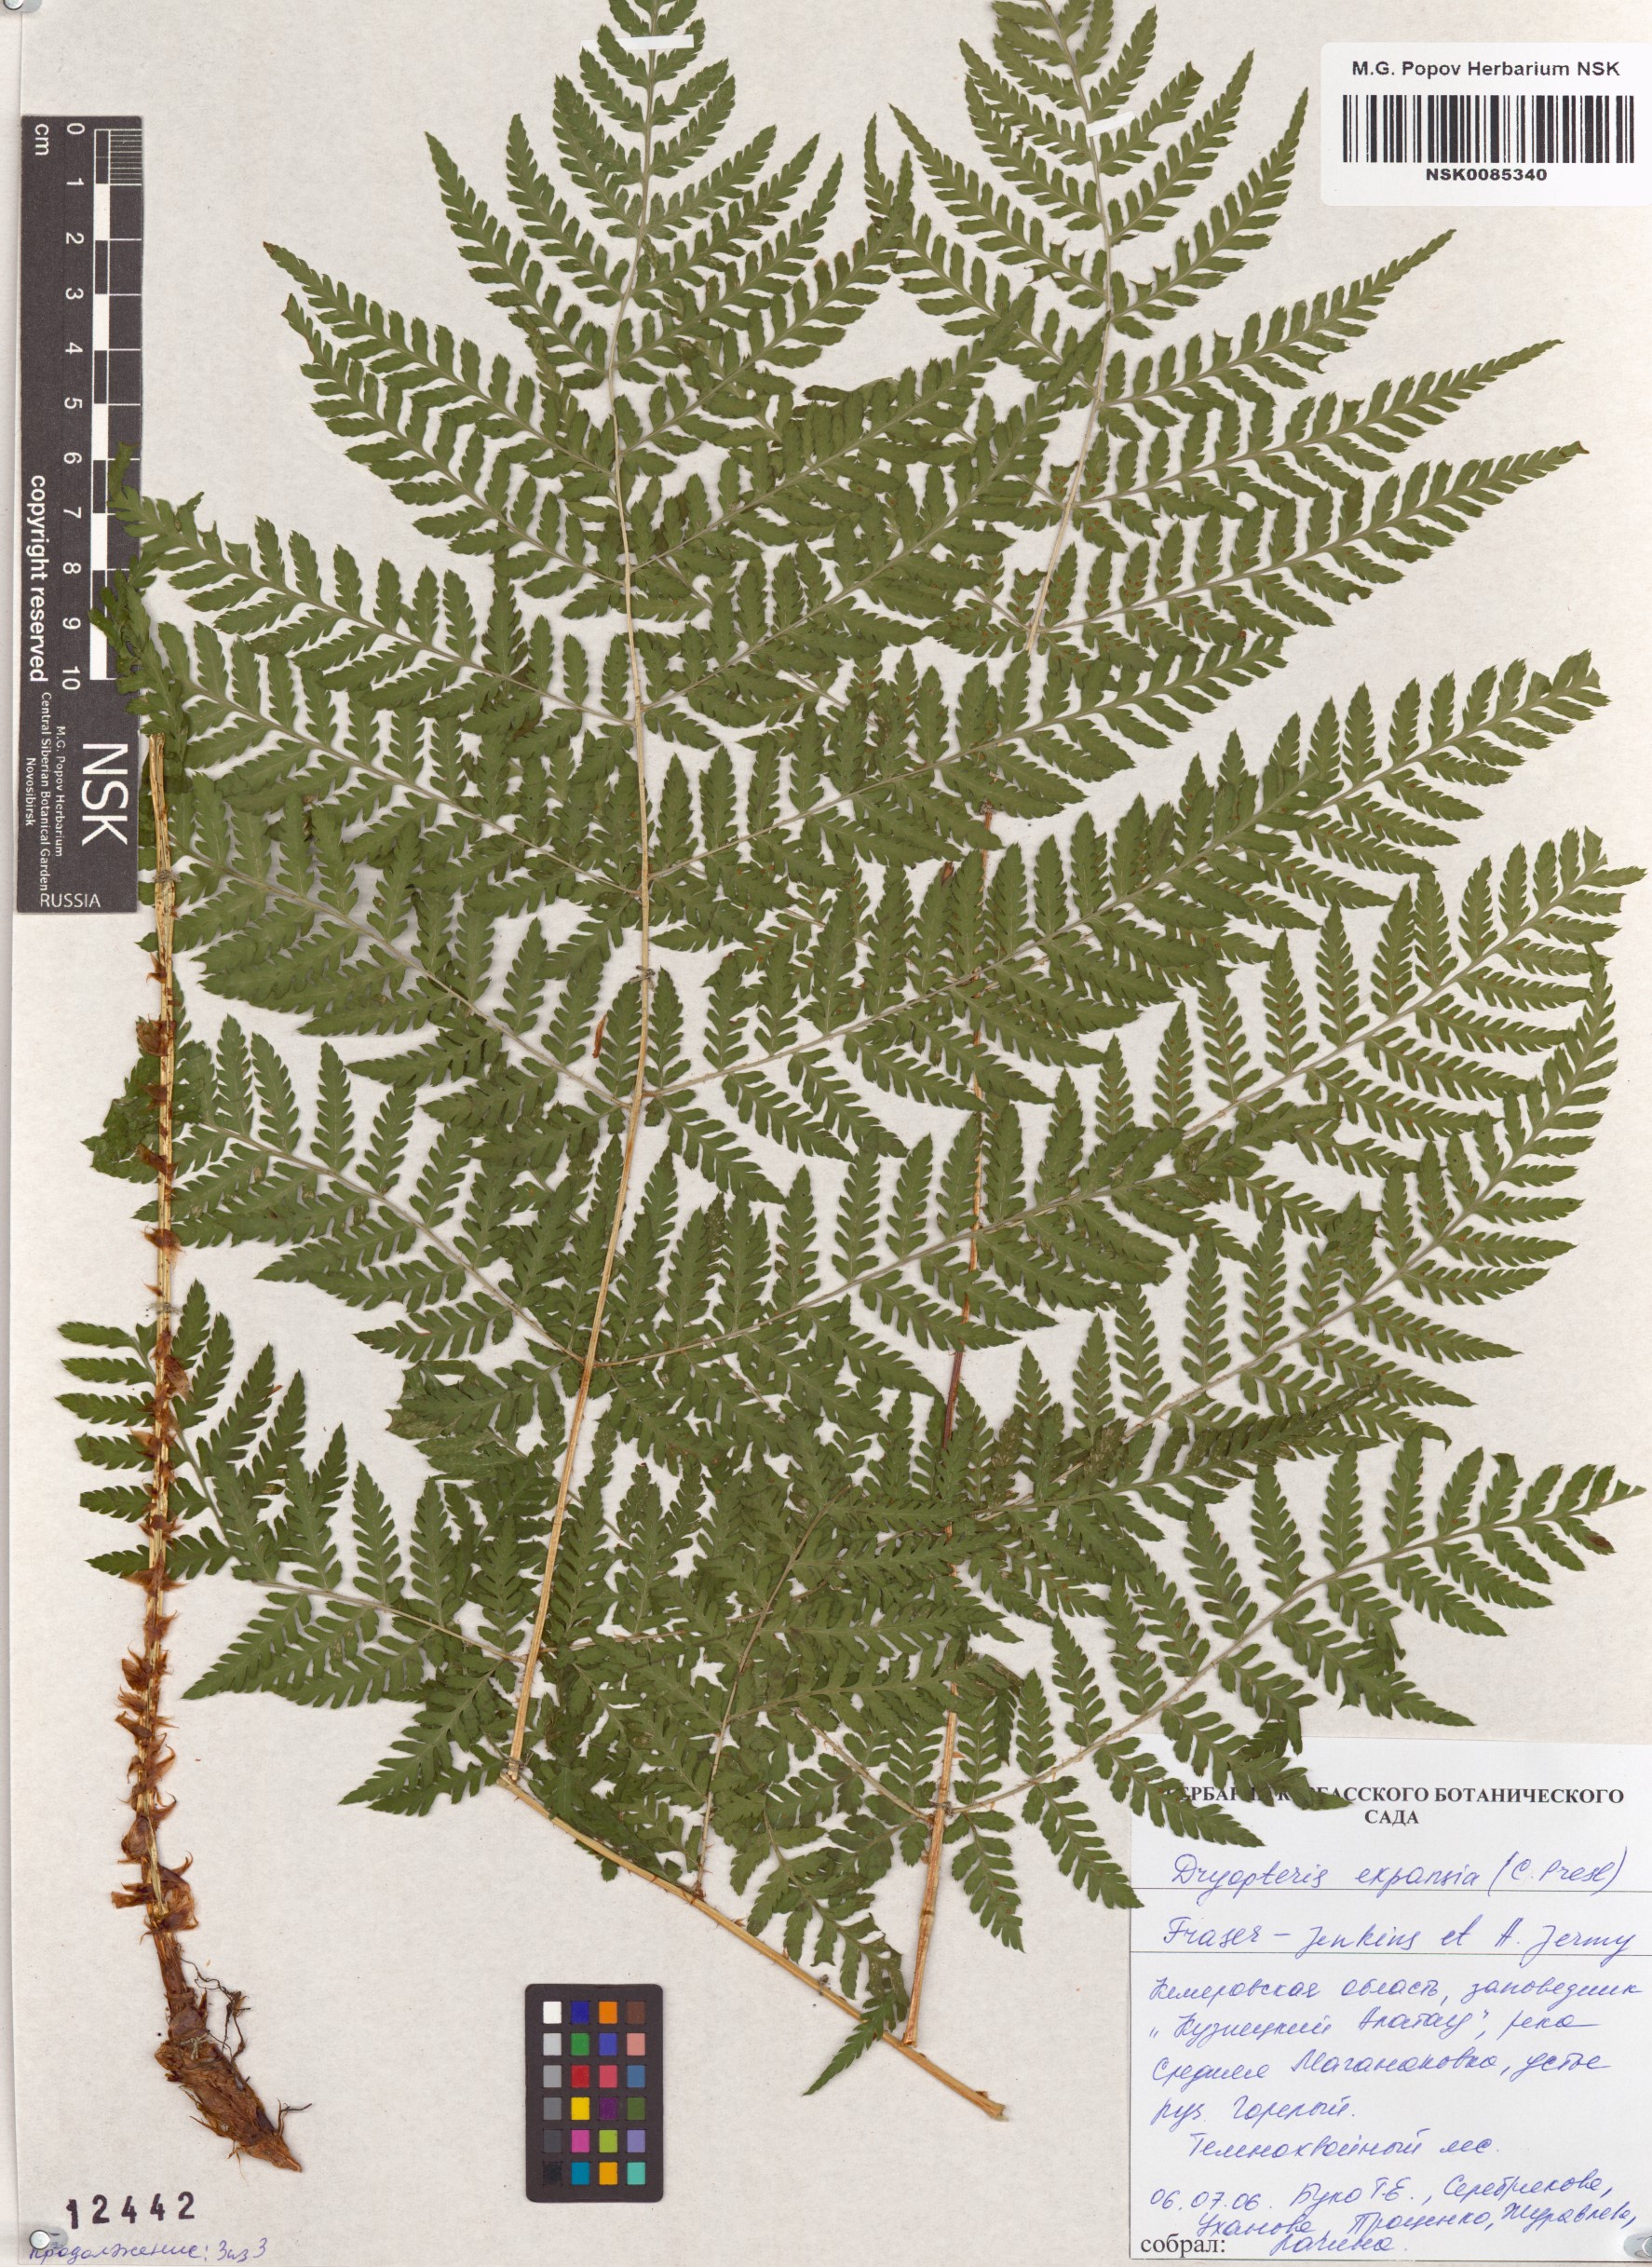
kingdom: Plantae
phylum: Tracheophyta
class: Polypodiopsida
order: Polypodiales
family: Dryopteridaceae
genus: Dryopteris
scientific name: Dryopteris expansa
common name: Northern buckler fern
